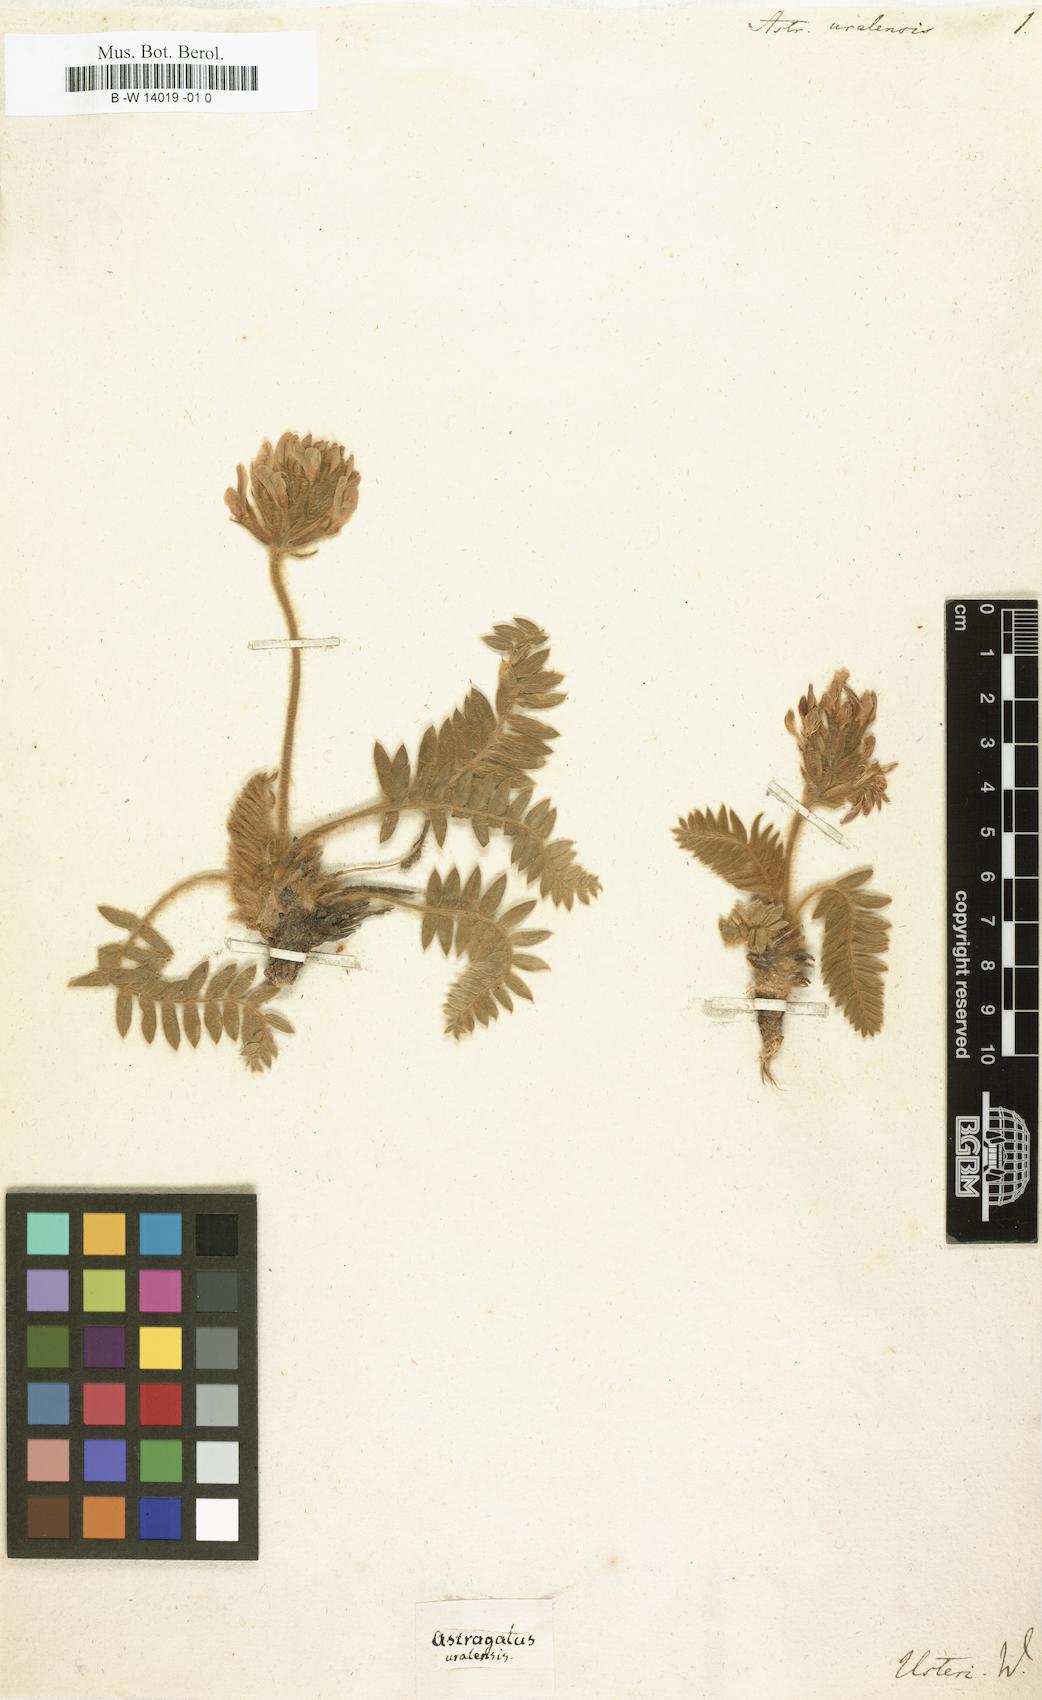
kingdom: Plantae
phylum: Tracheophyta
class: Magnoliopsida
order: Fabales
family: Fabaceae
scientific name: Fabaceae
